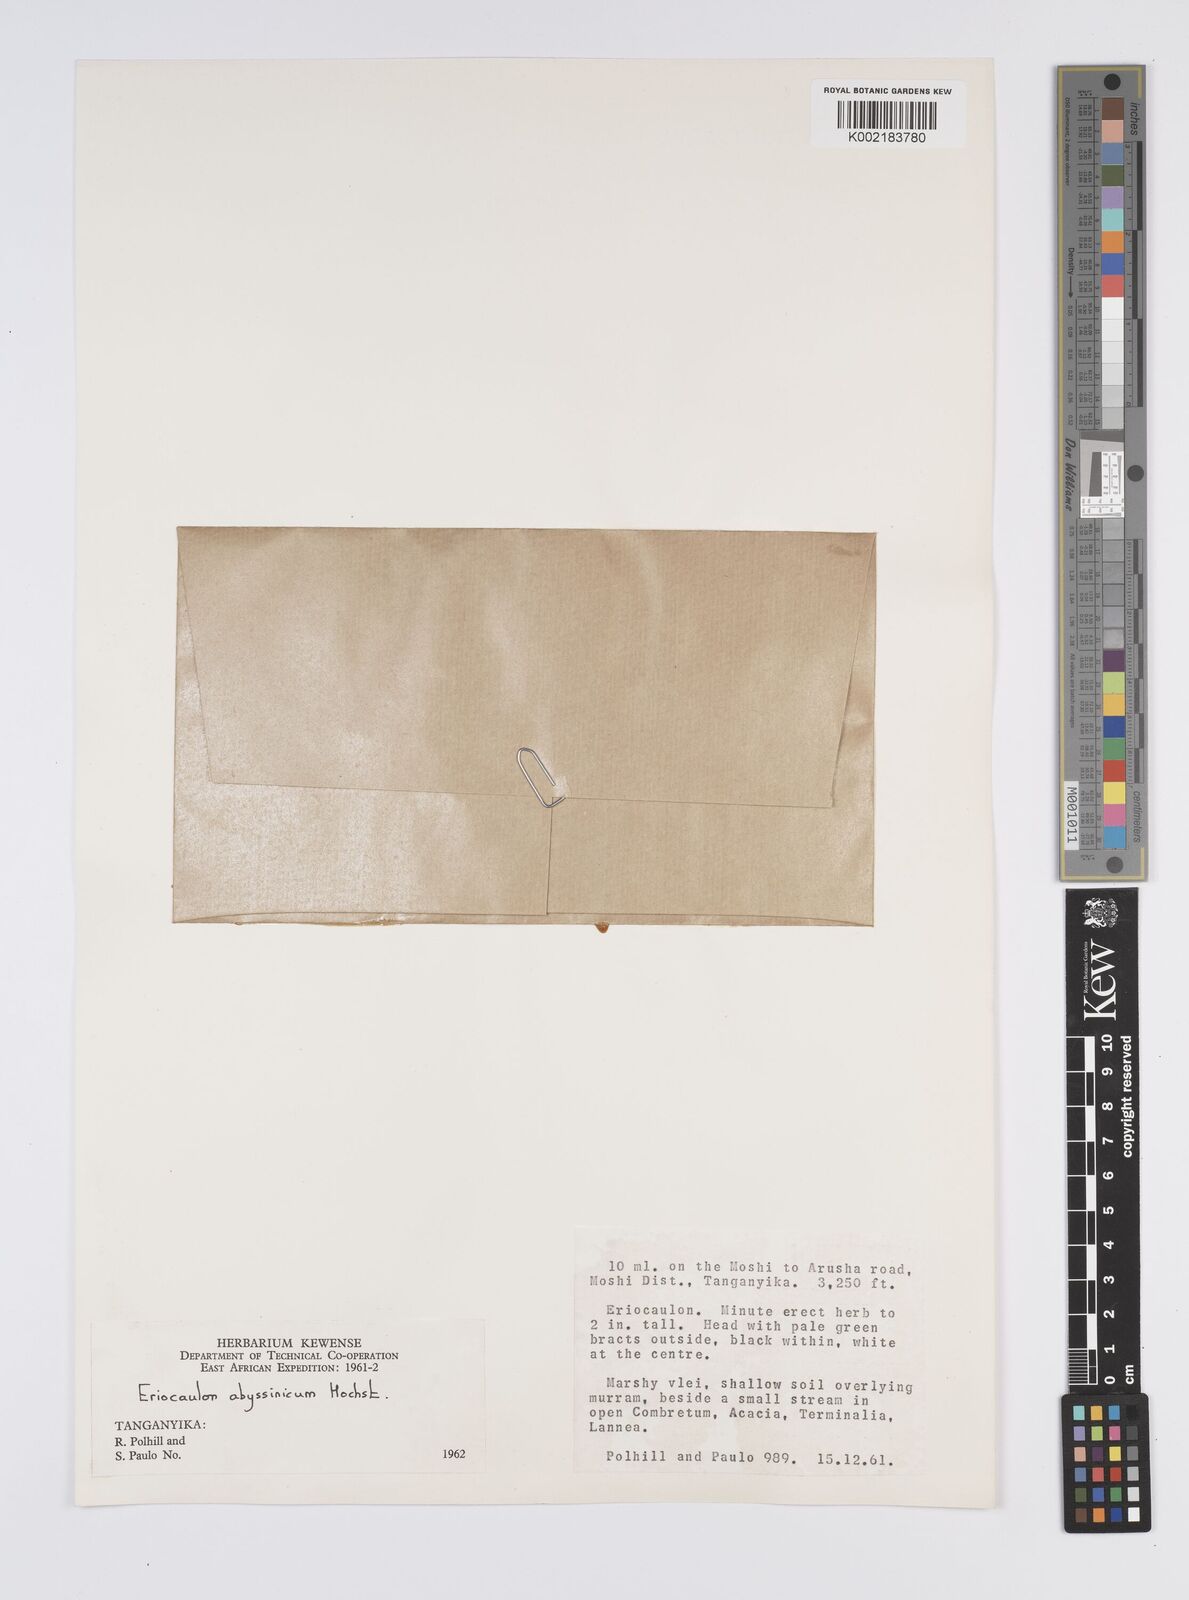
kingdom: Plantae
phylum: Tracheophyta
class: Liliopsida
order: Poales
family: Eriocaulaceae
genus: Eriocaulon
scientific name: Eriocaulon abyssinicum
